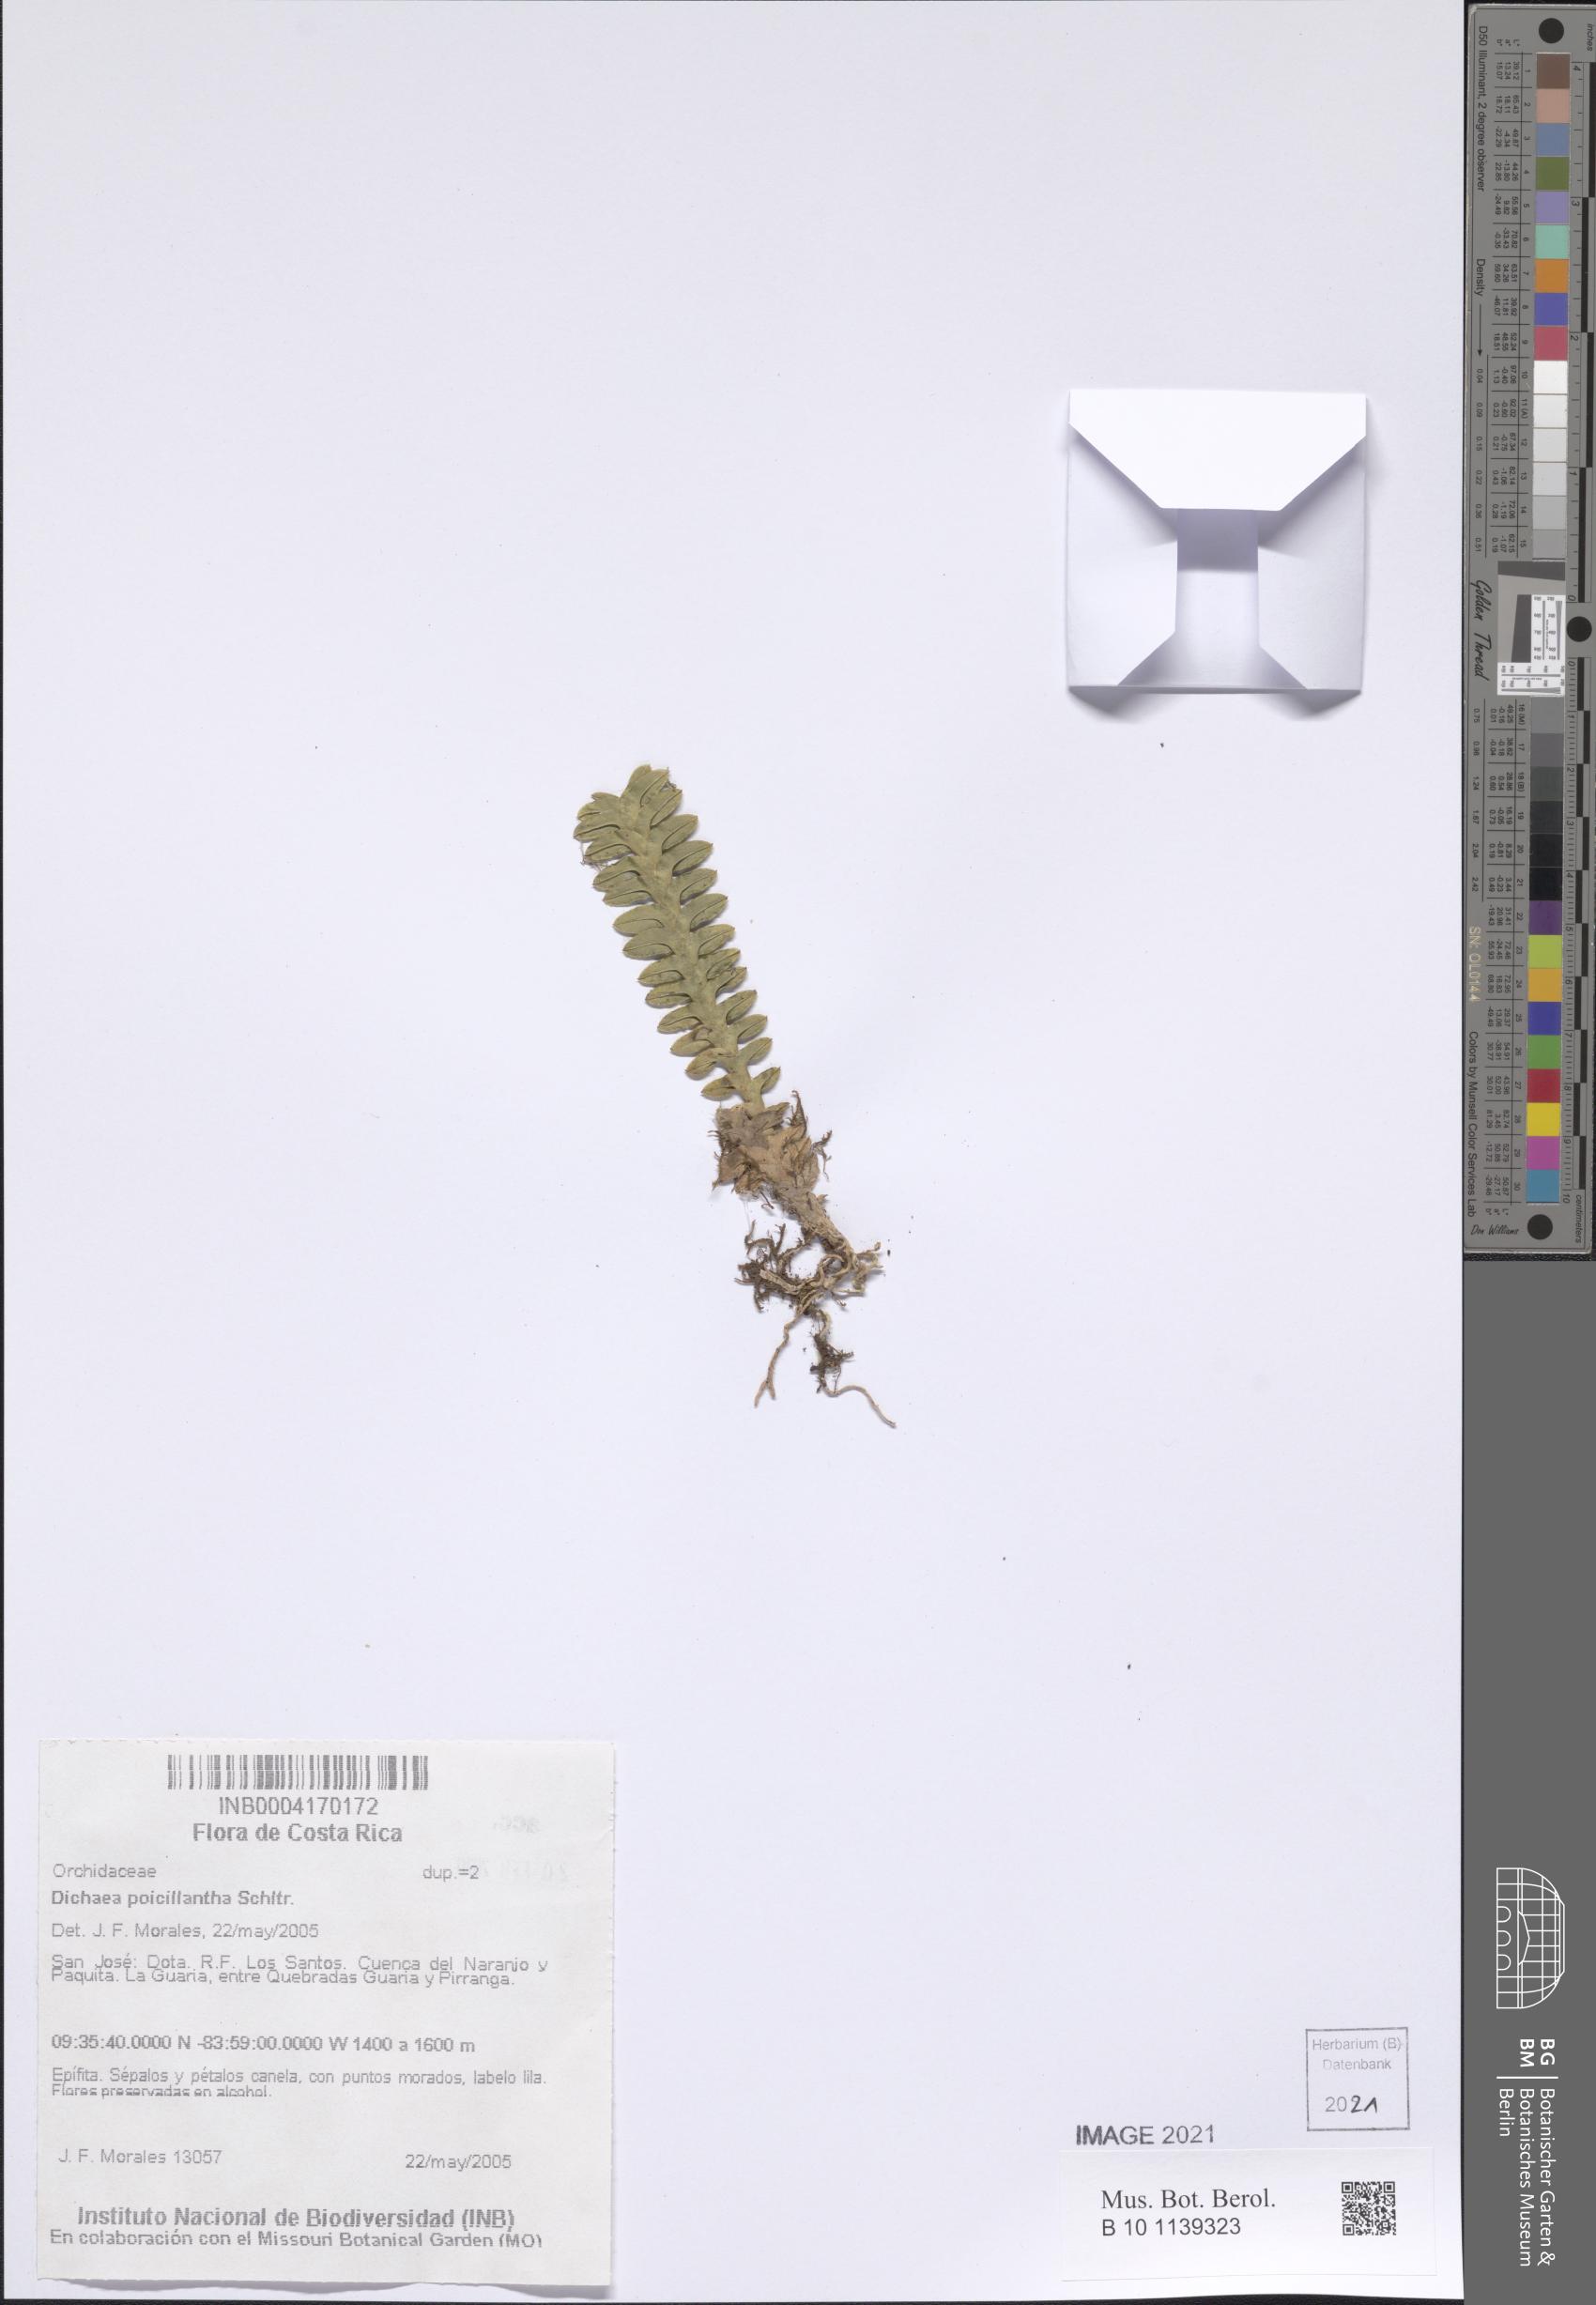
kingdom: Plantae
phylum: Tracheophyta
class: Liliopsida
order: Asparagales
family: Orchidaceae
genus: Dichaea
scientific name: Dichaea poicillantha
